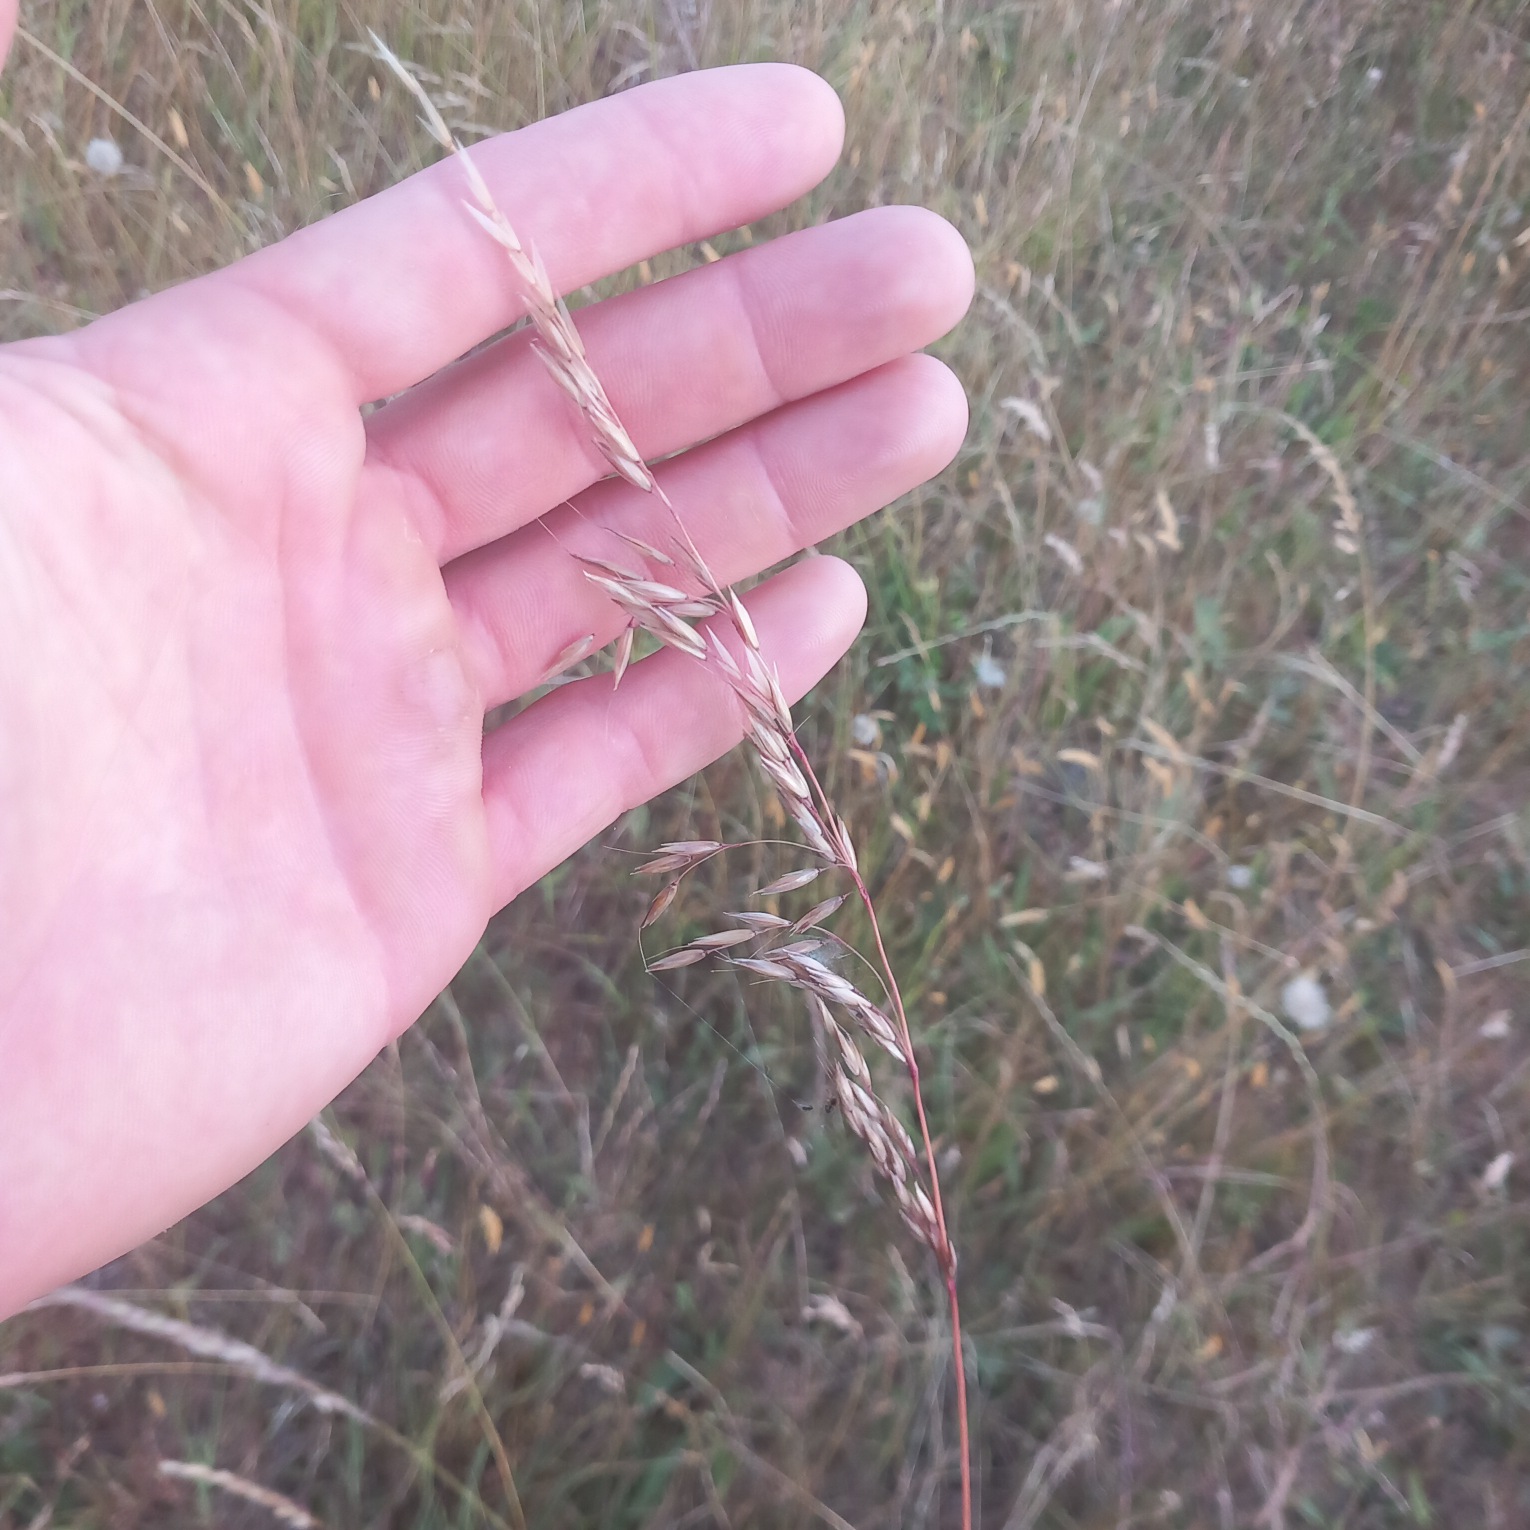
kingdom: Plantae
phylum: Tracheophyta
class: Liliopsida
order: Poales
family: Poaceae
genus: Arrhenatherum
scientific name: Arrhenatherum elatius
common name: Draphavre
